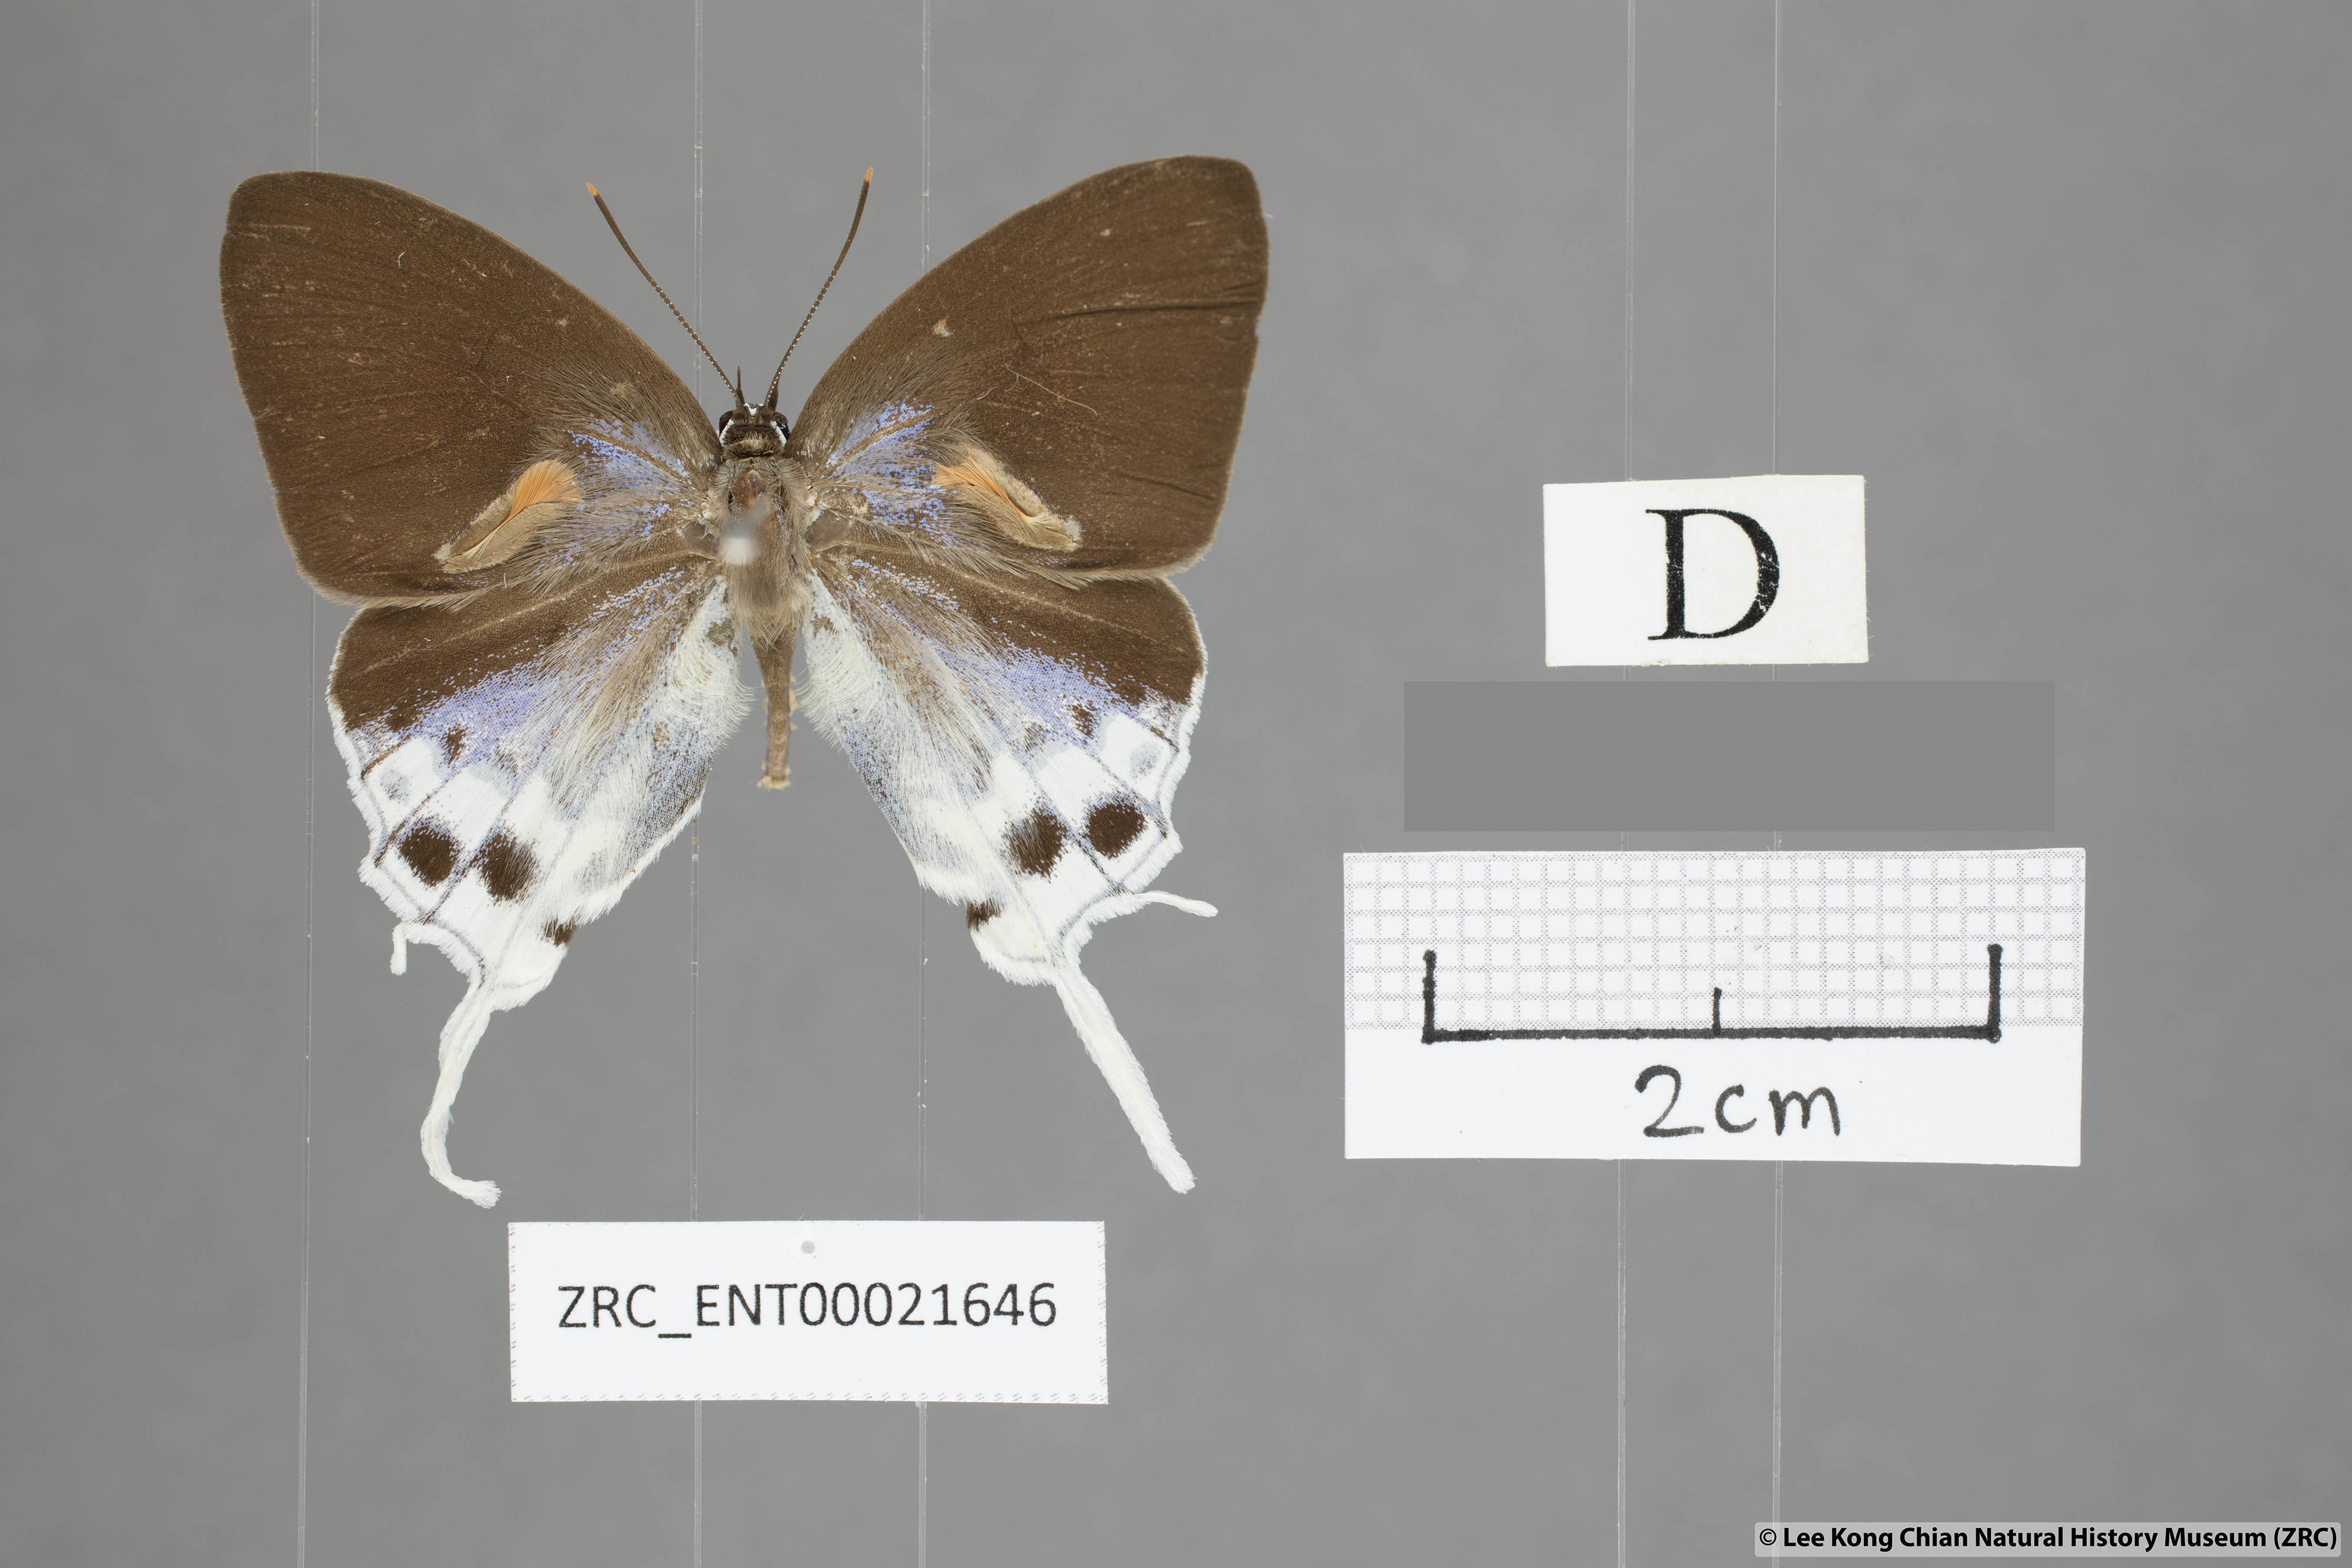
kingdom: Animalia
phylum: Arthropoda
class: Insecta
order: Lepidoptera
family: Lycaenidae
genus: Thrix
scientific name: Thrix
